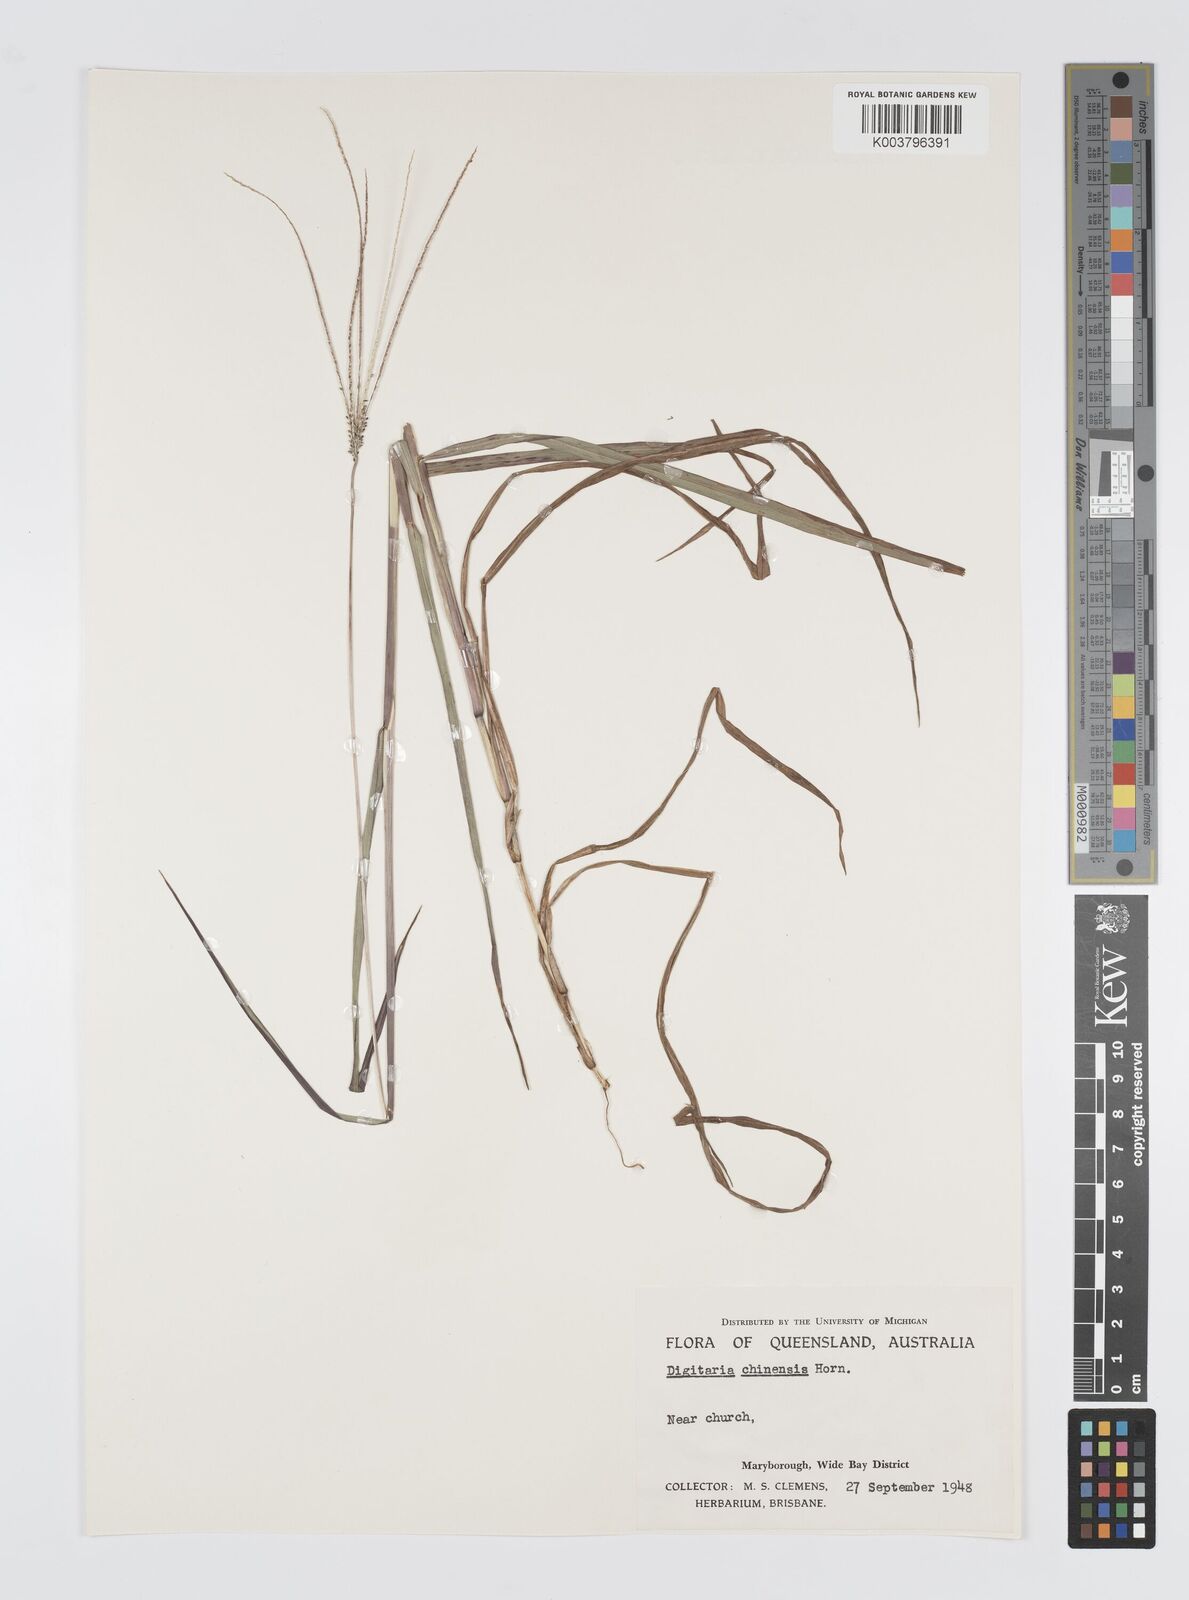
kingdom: Plantae
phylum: Tracheophyta
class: Liliopsida
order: Poales
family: Poaceae
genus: Digitaria
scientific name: Digitaria violascens
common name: Violet crabgrass
